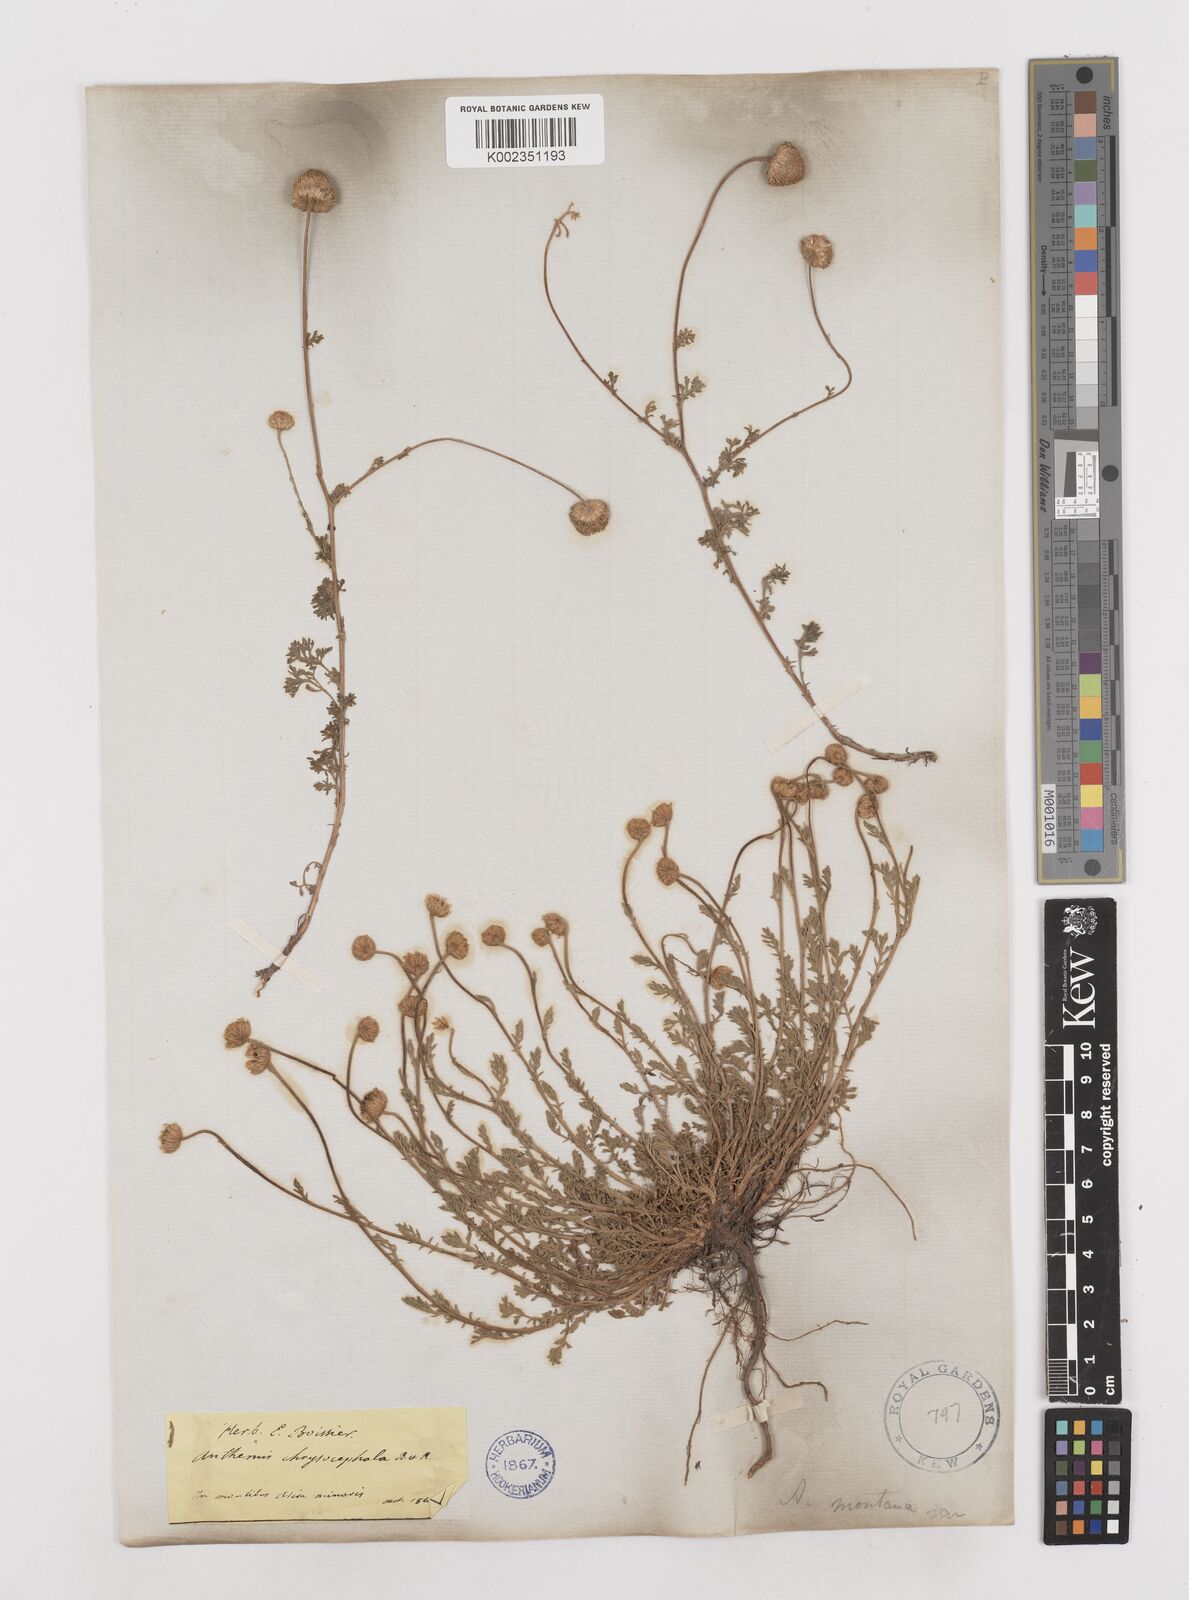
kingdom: Plantae
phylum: Tracheophyta
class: Magnoliopsida
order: Asterales
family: Asteraceae
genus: Anthemis
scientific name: Anthemis cretica
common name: Mountain dog-daisy
